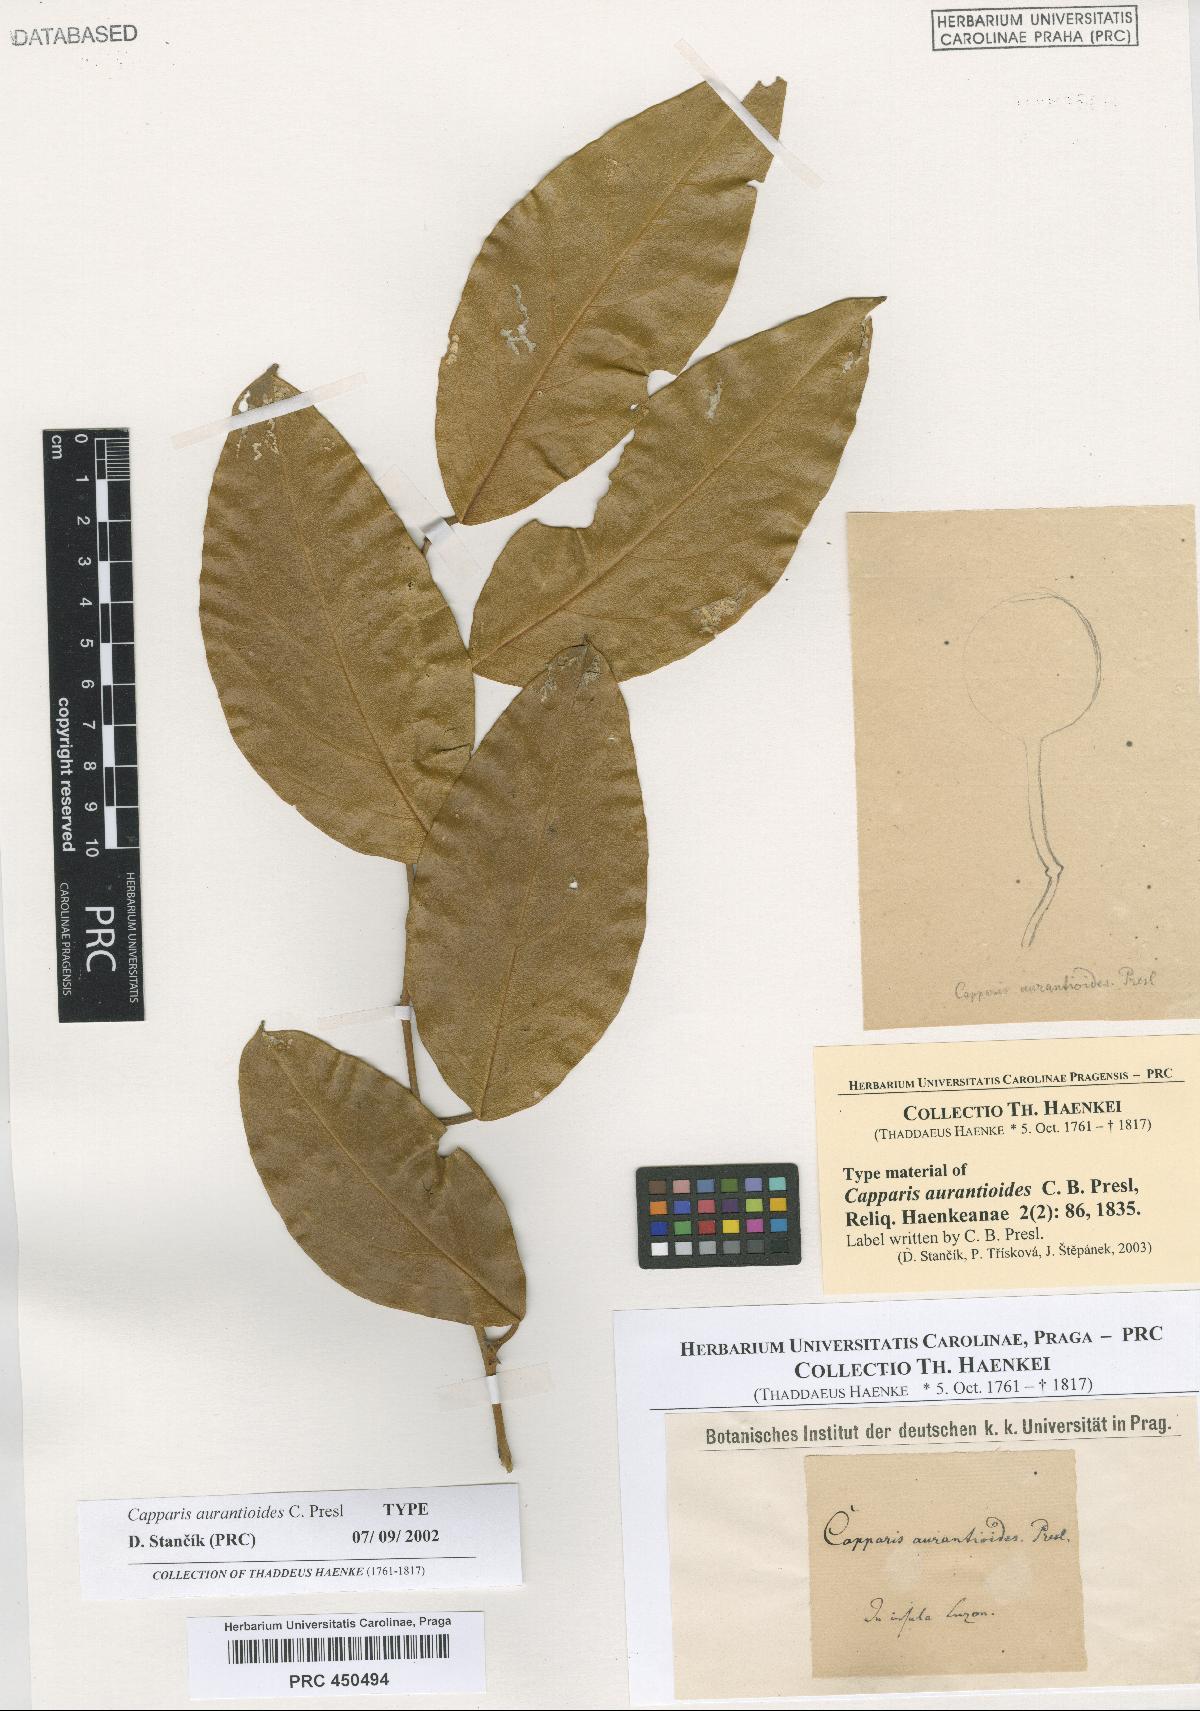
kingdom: Plantae
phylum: Tracheophyta
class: Magnoliopsida
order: Brassicales
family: Capparaceae
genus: Capparis
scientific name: Capparis zeylanica
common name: Ceylon caper
